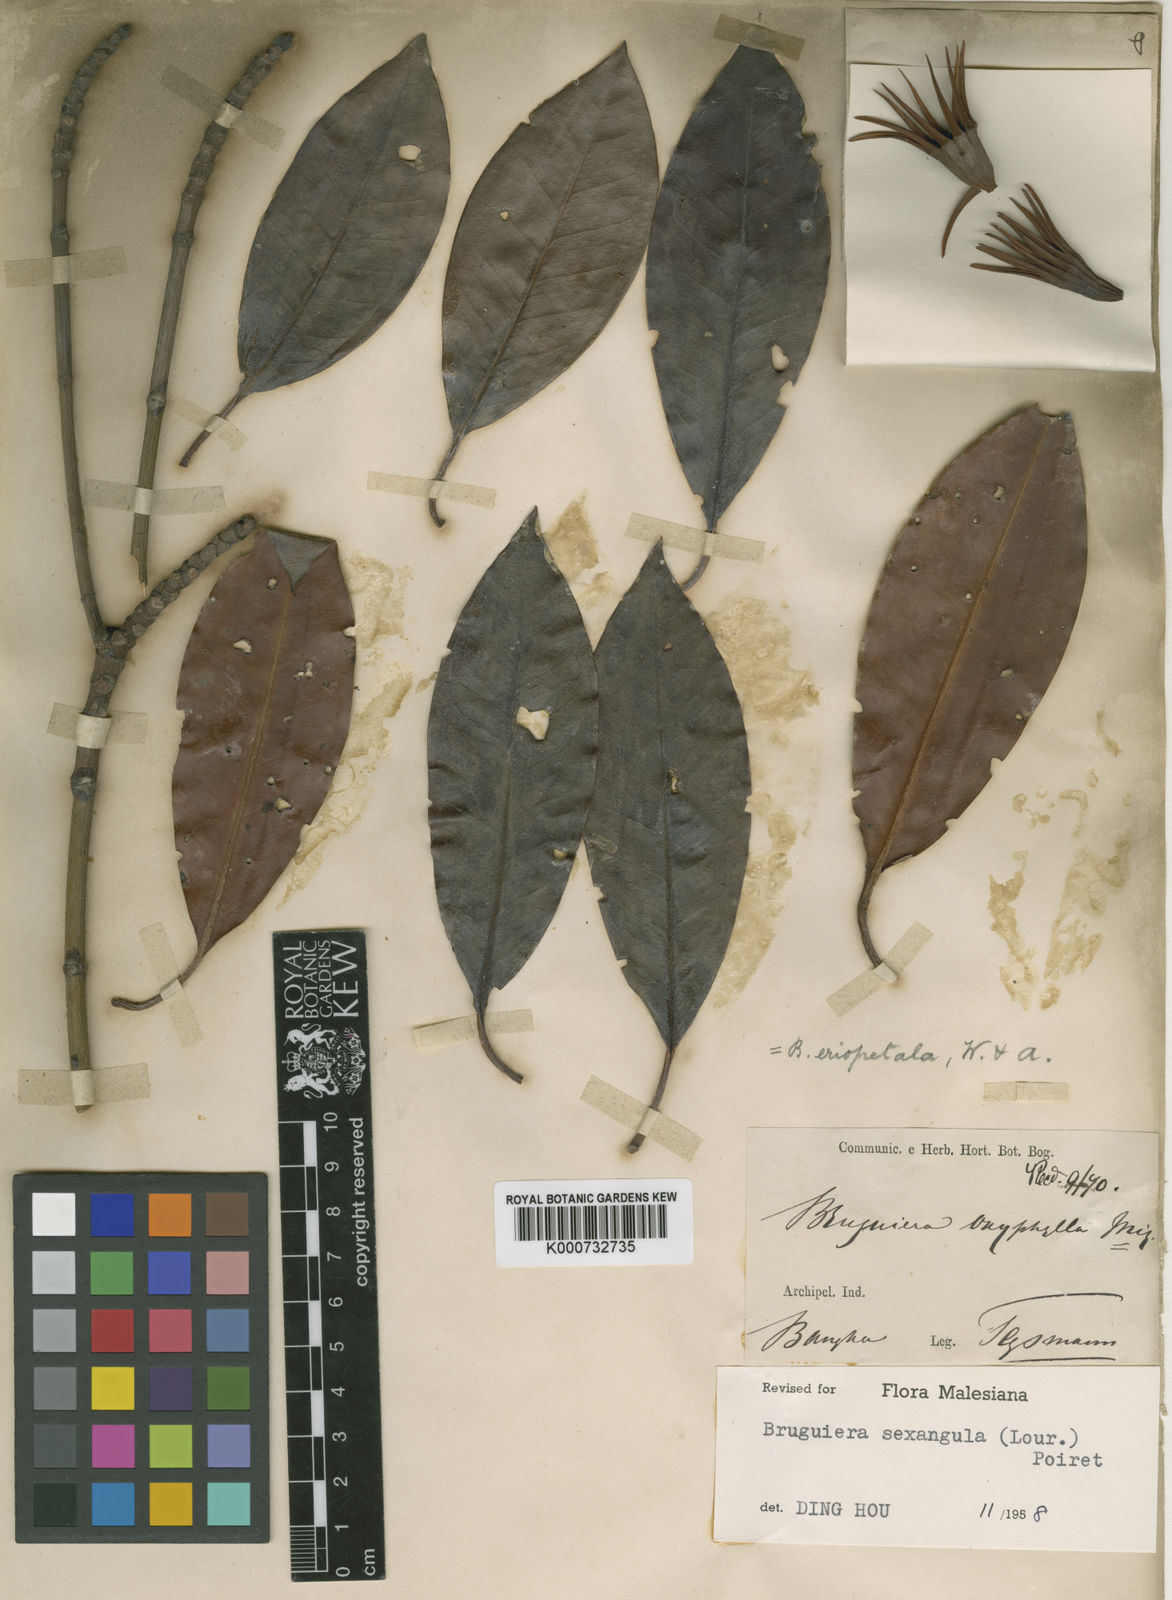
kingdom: Plantae
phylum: Tracheophyta
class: Magnoliopsida
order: Malpighiales
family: Rhizophoraceae
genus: Bruguiera
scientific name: Bruguiera sexangula
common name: Oriental mangrove
